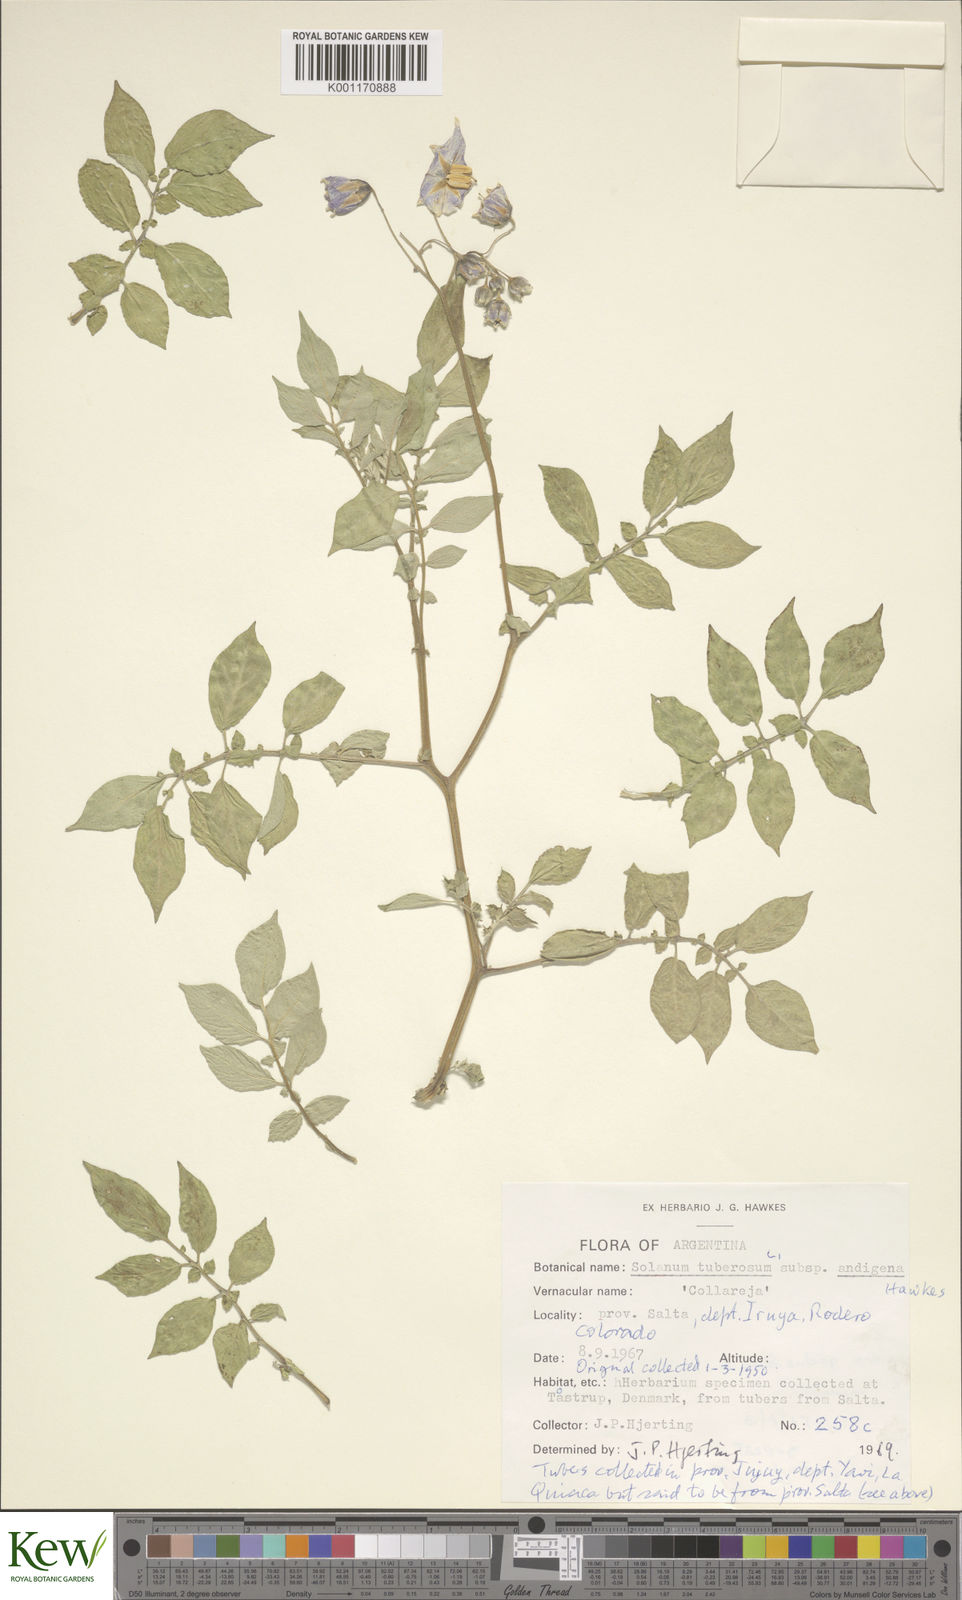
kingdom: Plantae
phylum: Tracheophyta
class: Magnoliopsida
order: Solanales
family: Solanaceae
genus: Solanum
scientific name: Solanum tuberosum
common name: Potato
